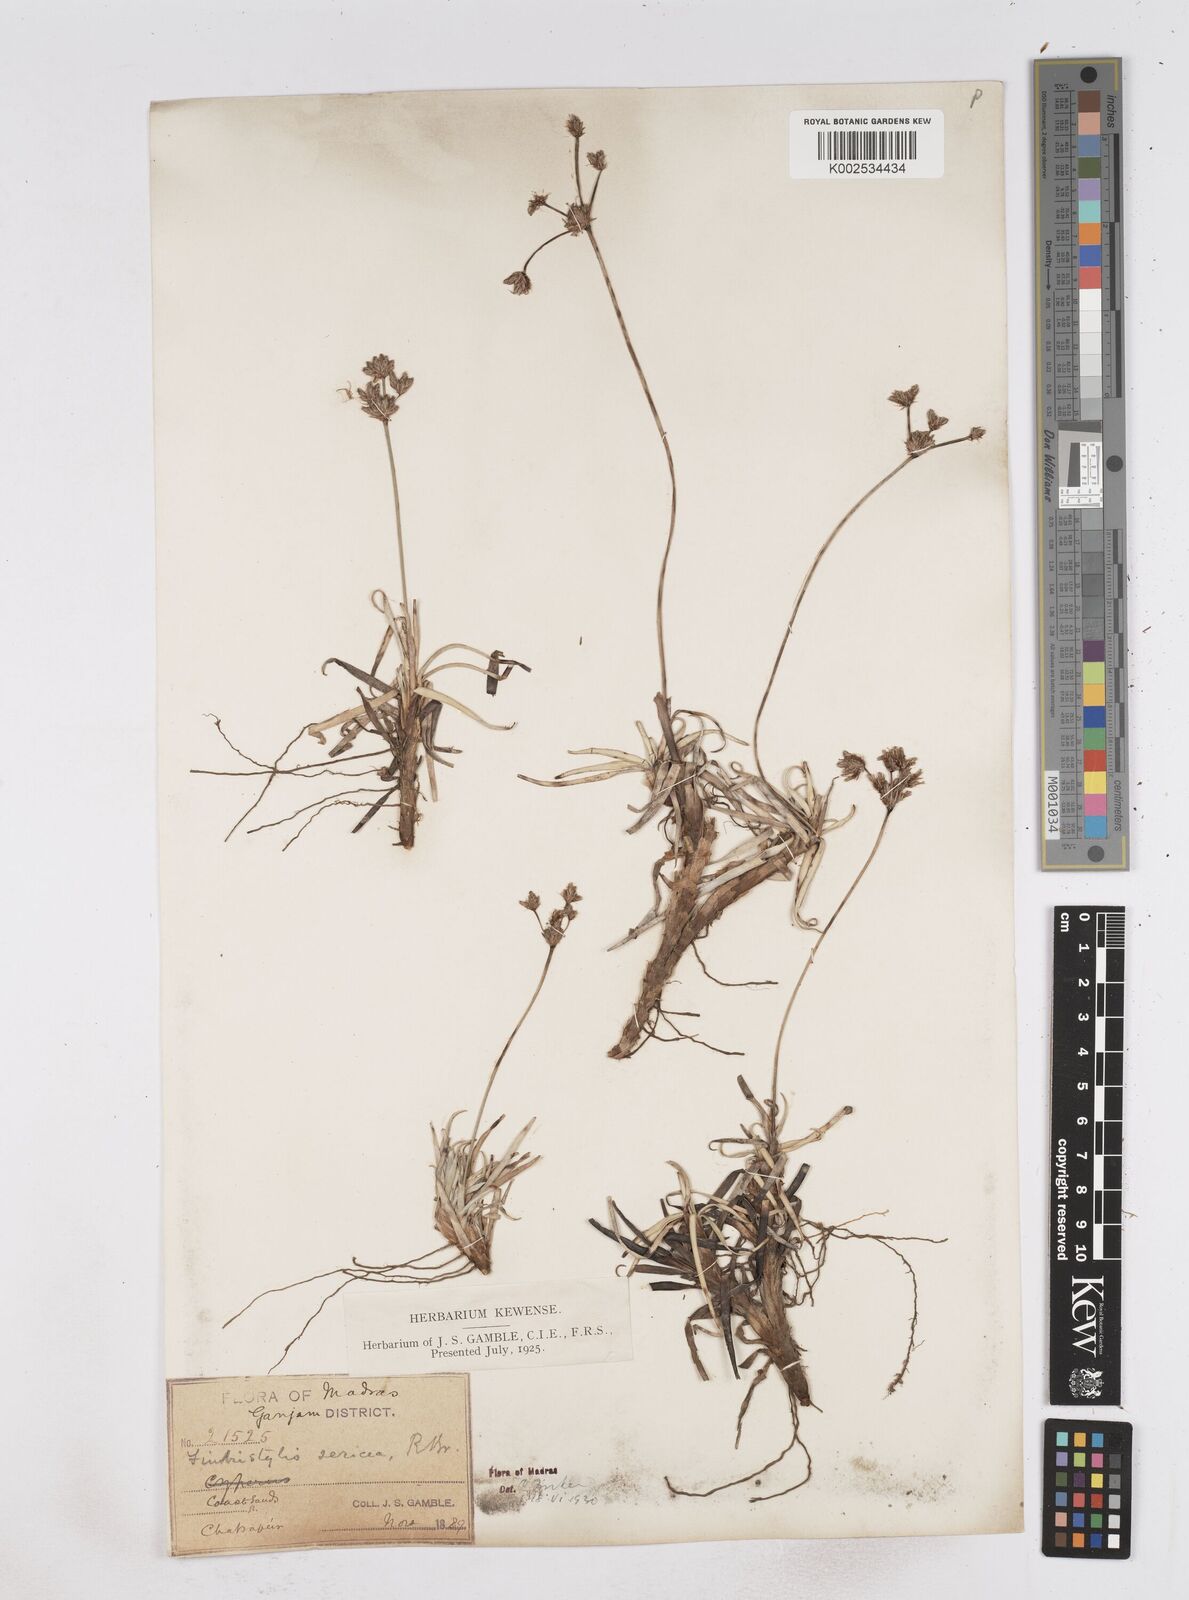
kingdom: Plantae
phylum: Tracheophyta
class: Liliopsida
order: Poales
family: Cyperaceae
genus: Fimbristylis
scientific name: Fimbristylis sericea
